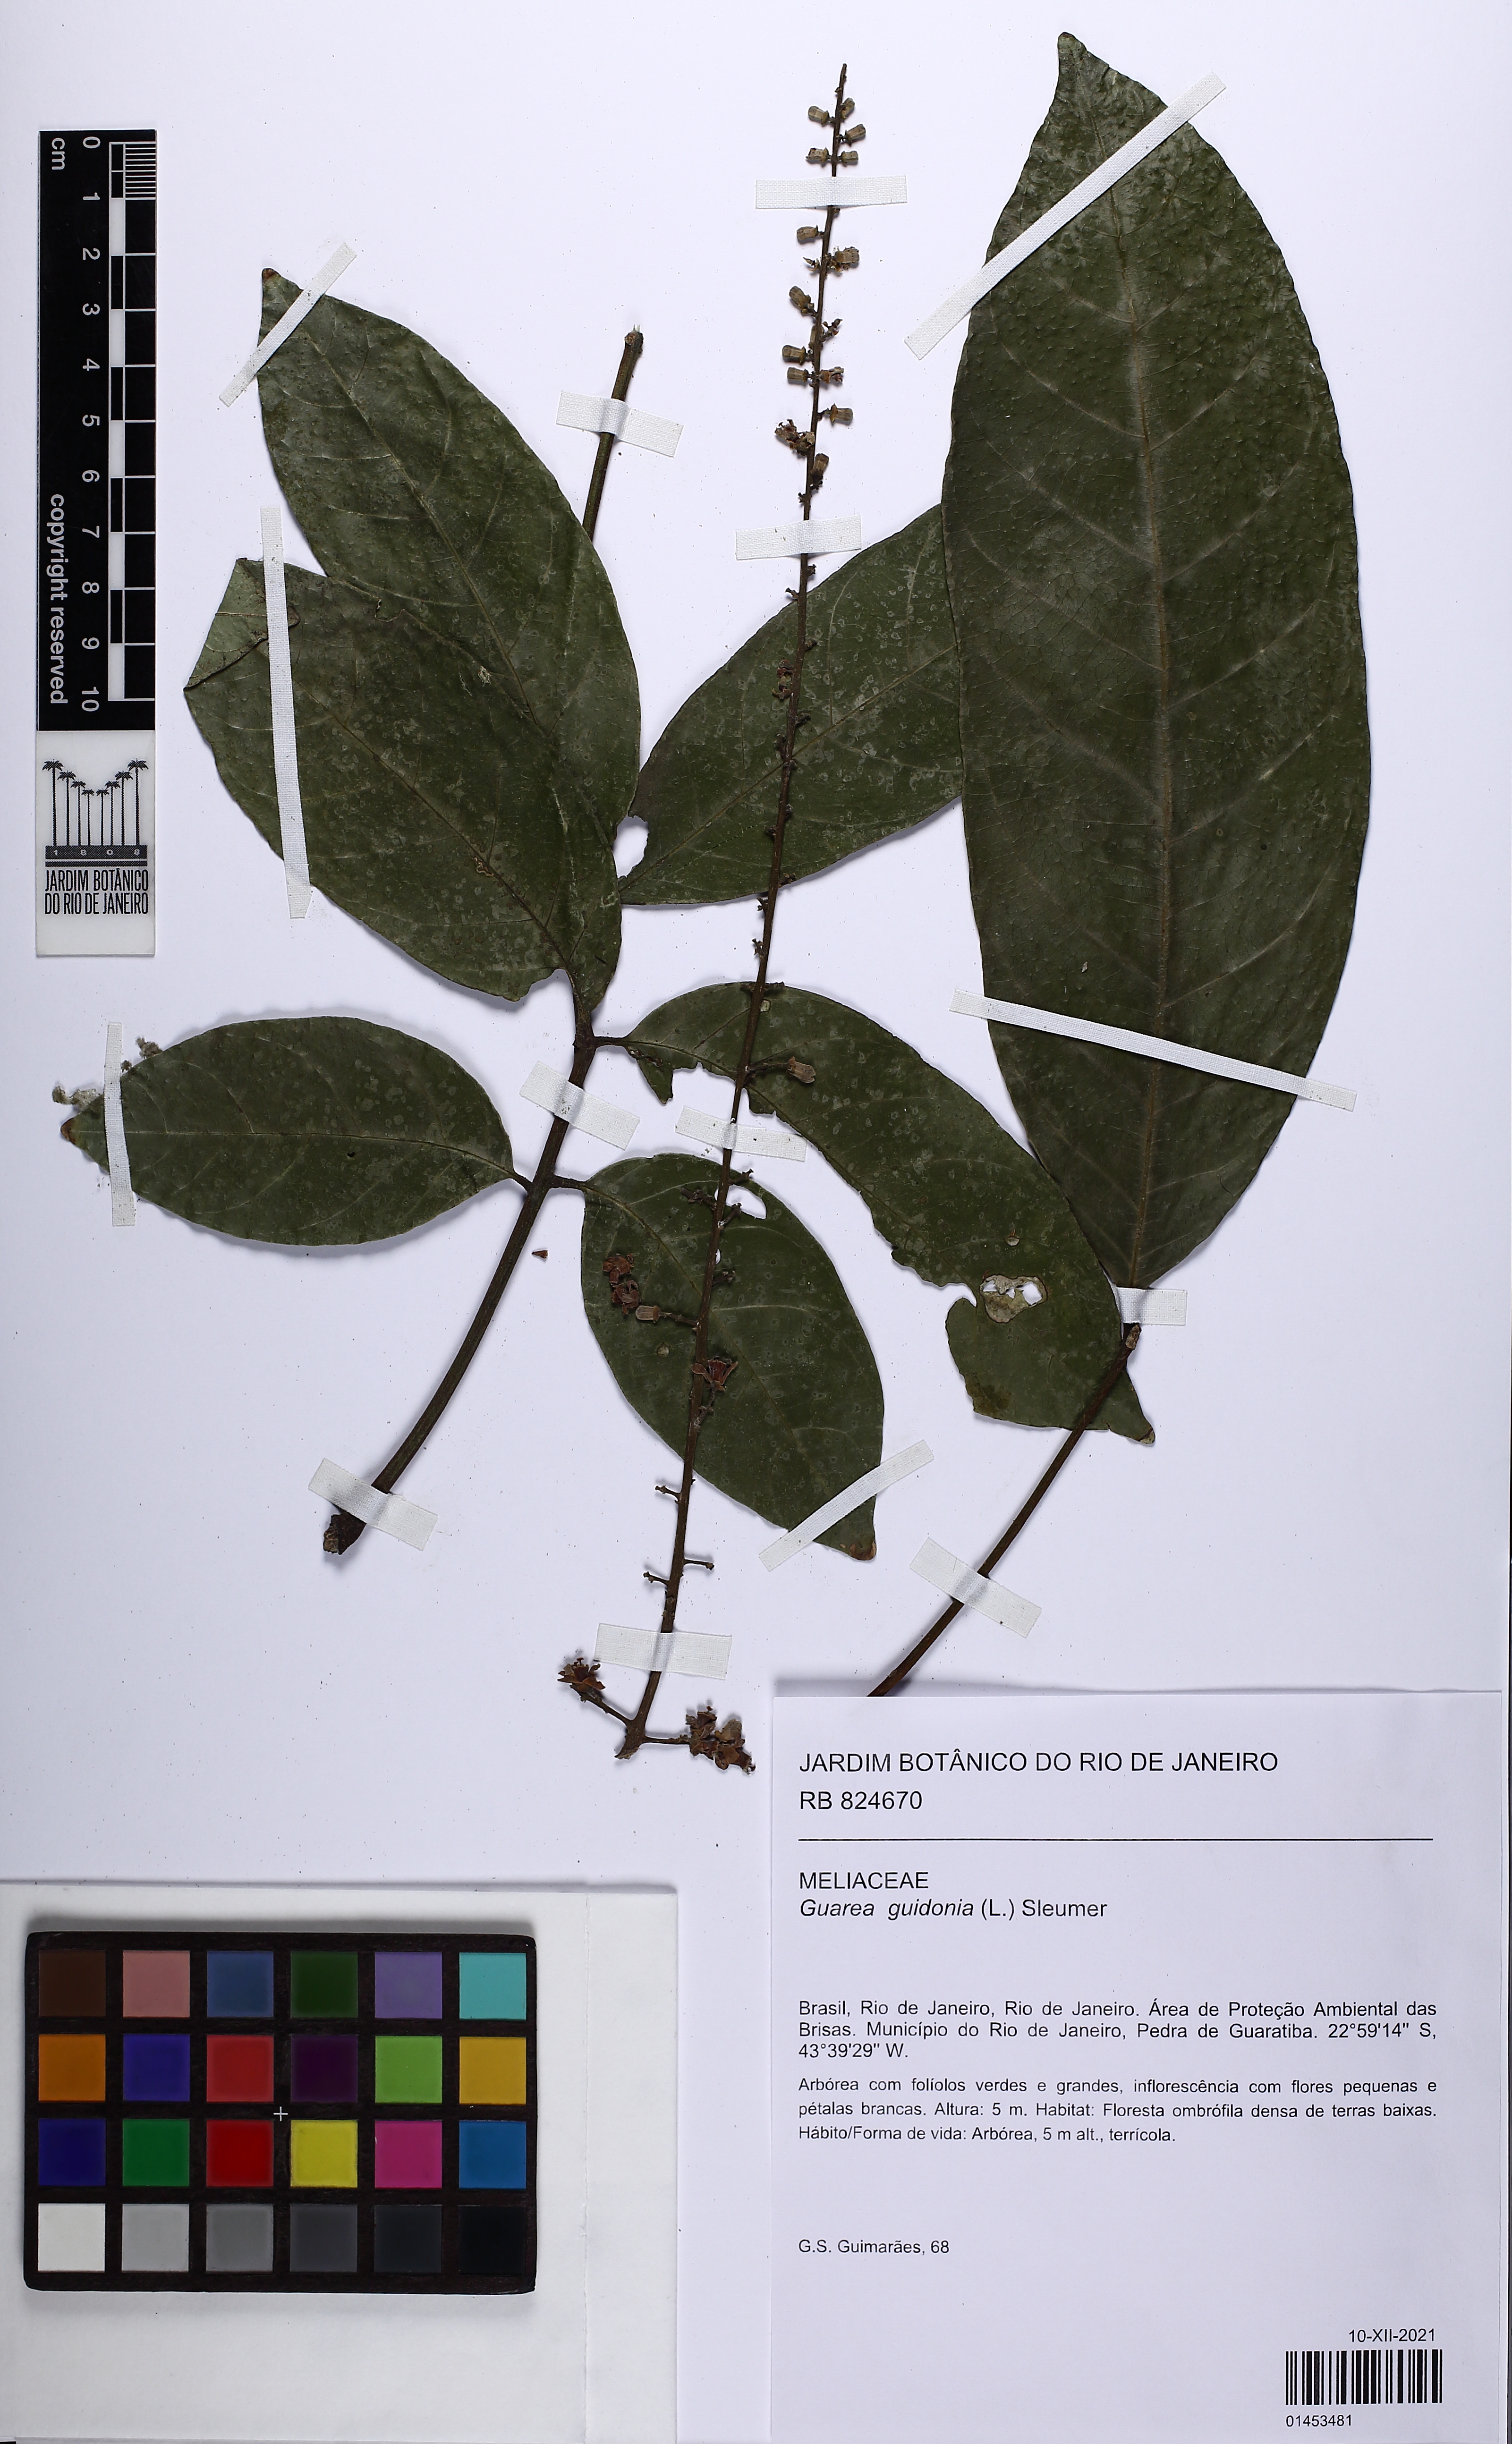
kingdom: Plantae
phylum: Tracheophyta
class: Magnoliopsida
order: Sapindales
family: Meliaceae
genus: Guarea
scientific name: Guarea guidonia
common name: American muskwood
